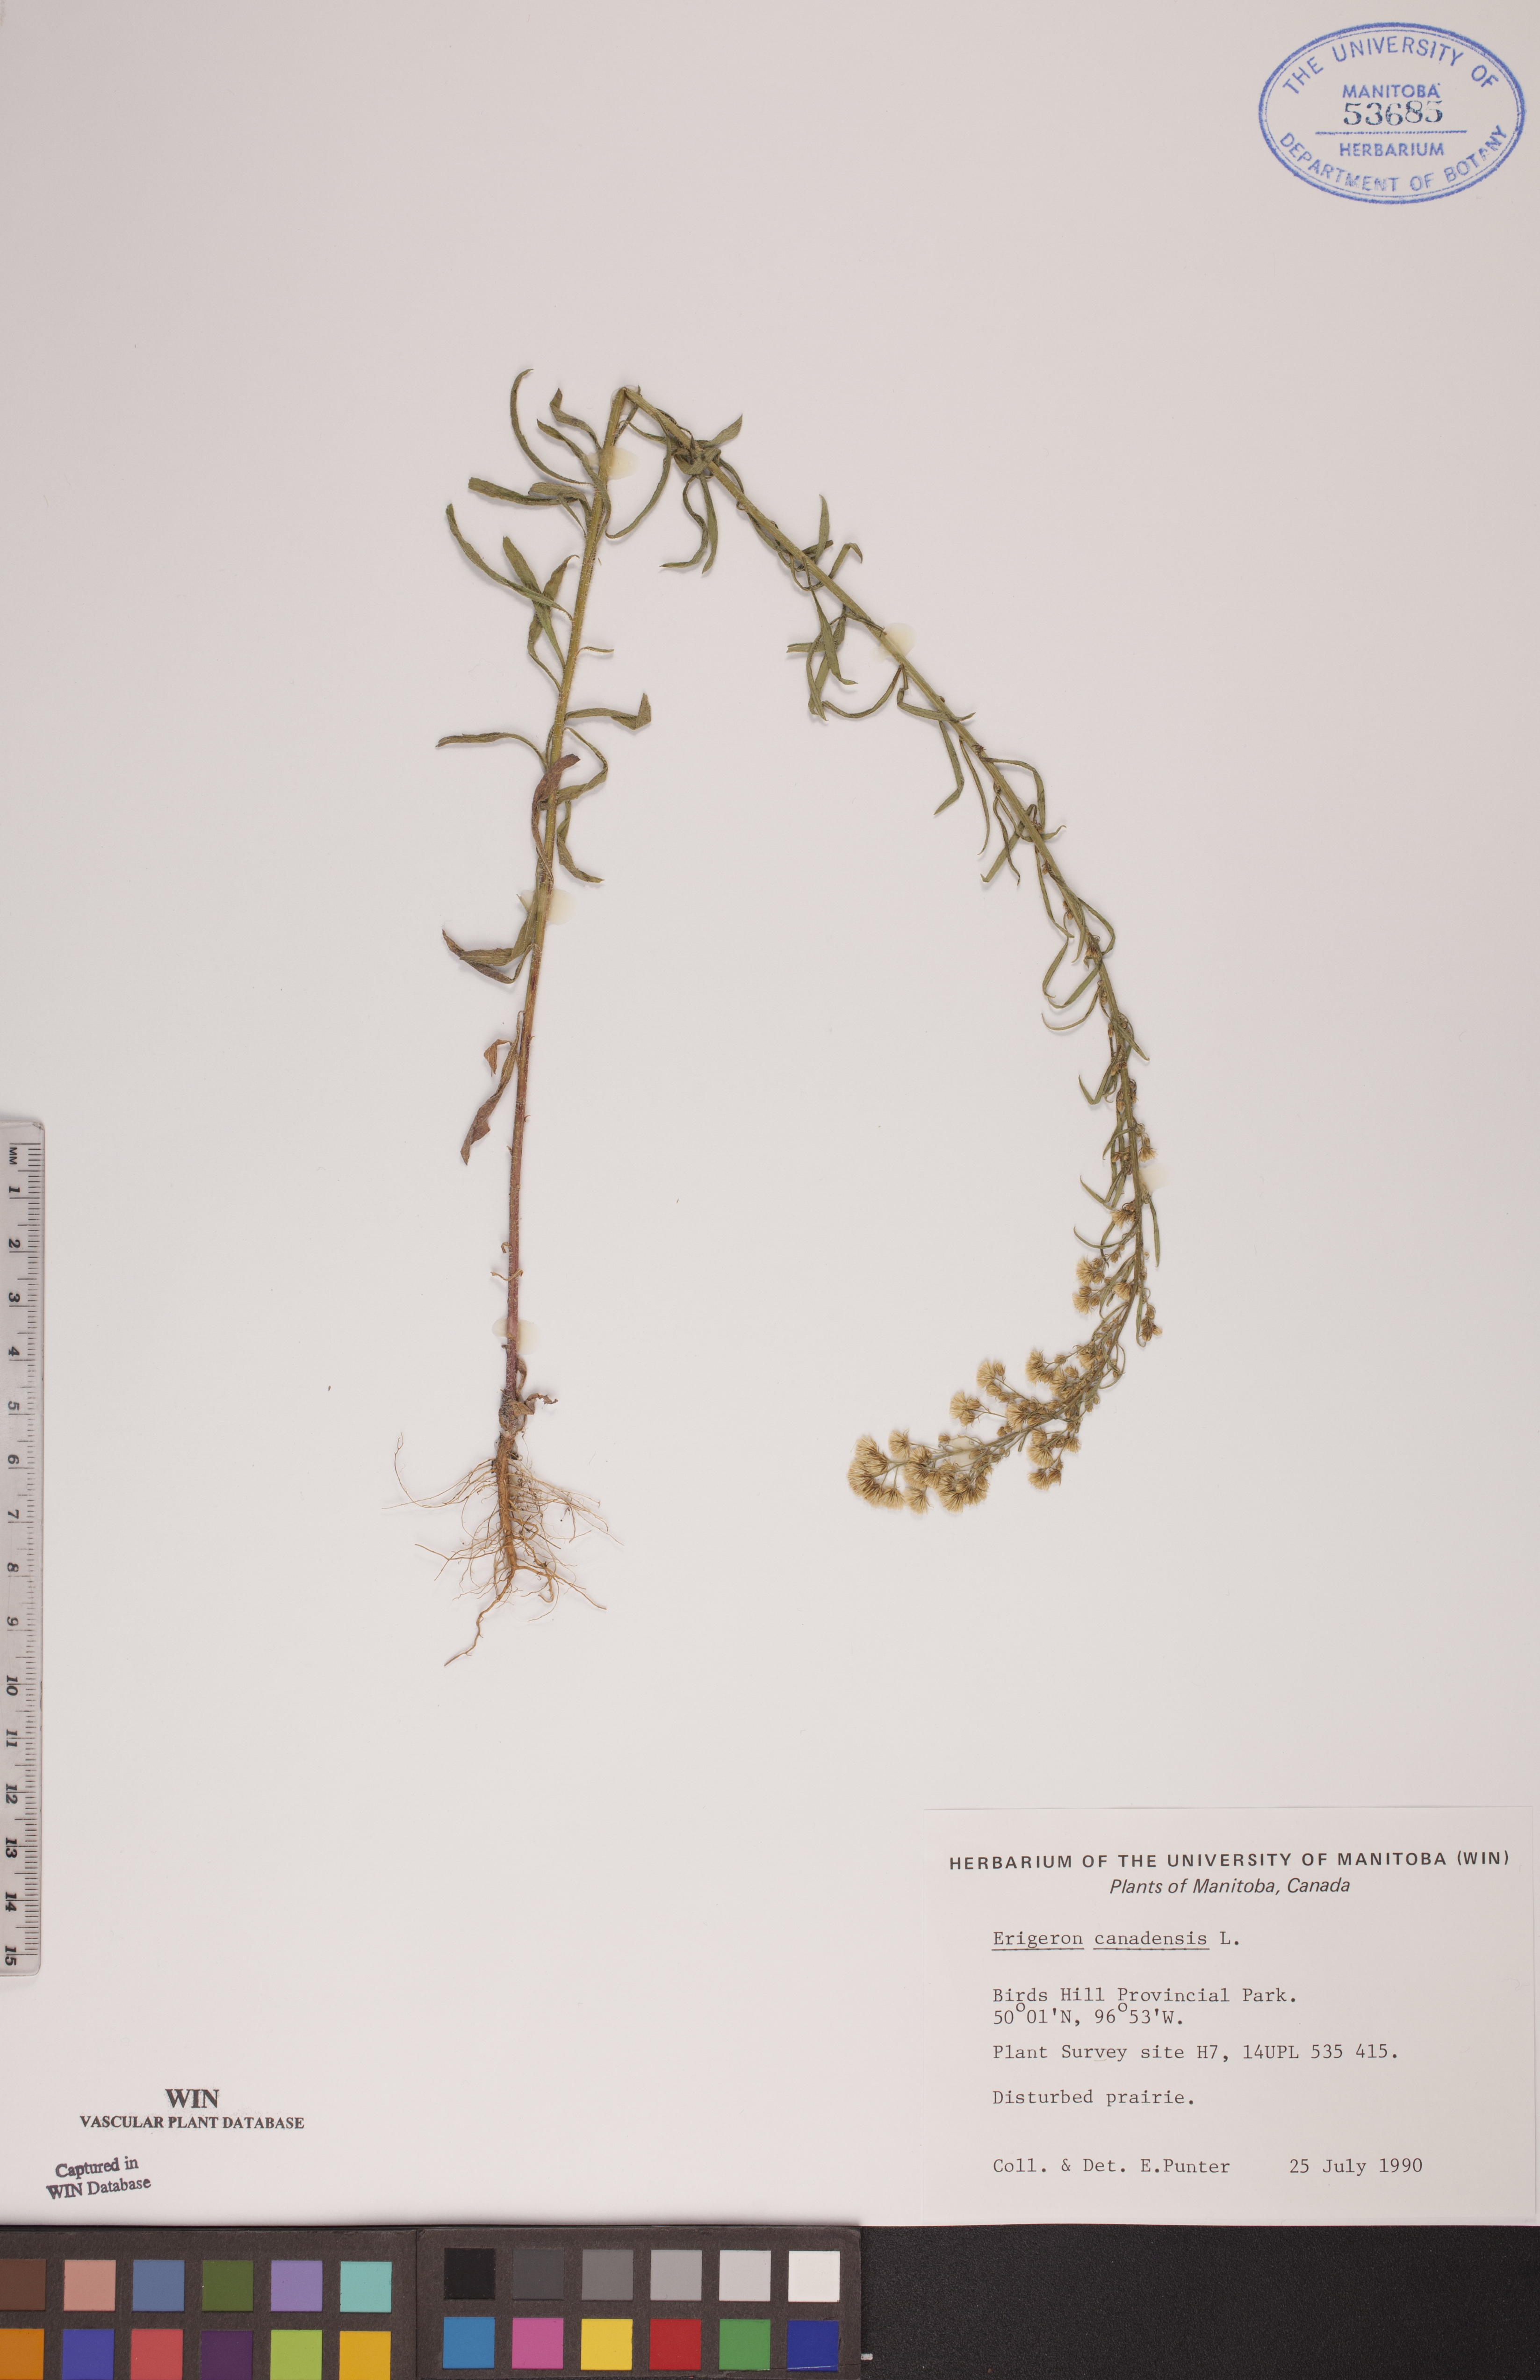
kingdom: Plantae
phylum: Tracheophyta
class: Magnoliopsida
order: Asterales
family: Asteraceae
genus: Erigeron
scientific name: Erigeron canadensis
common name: Canadian fleabane
